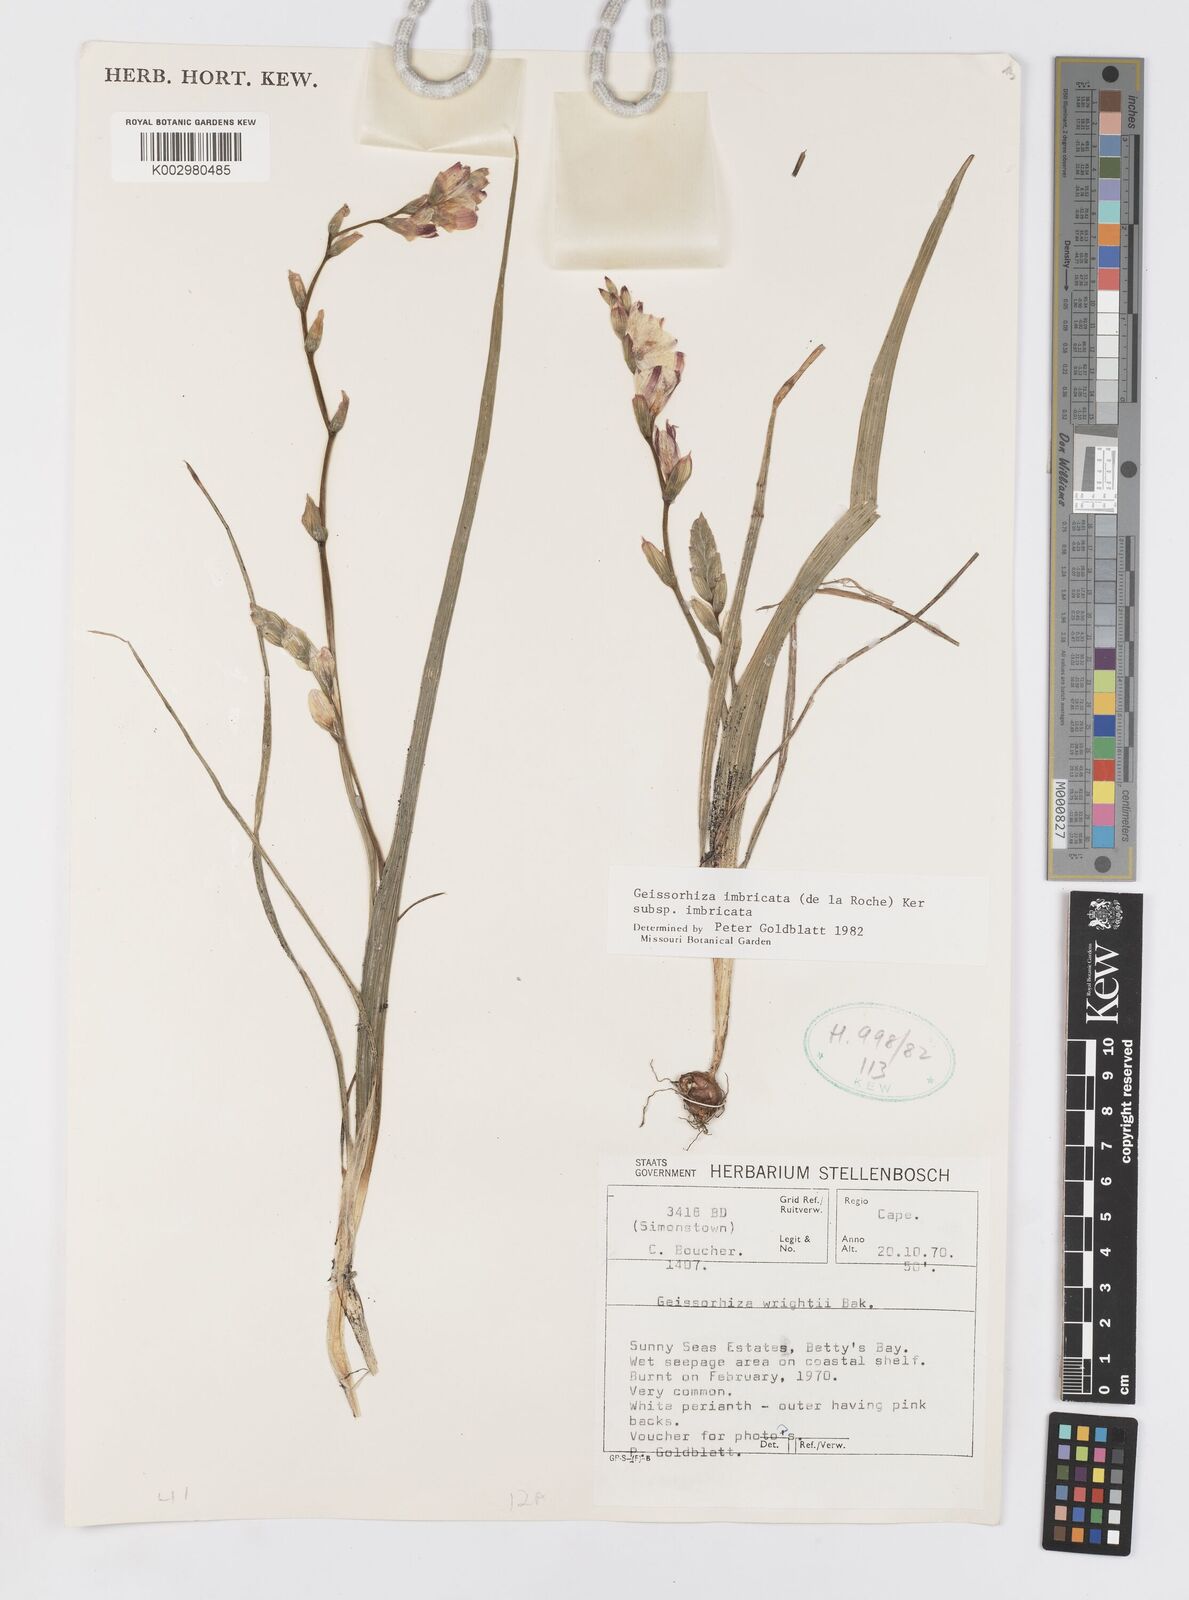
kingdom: Plantae
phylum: Tracheophyta
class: Liliopsida
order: Asparagales
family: Iridaceae
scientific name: Iridaceae
